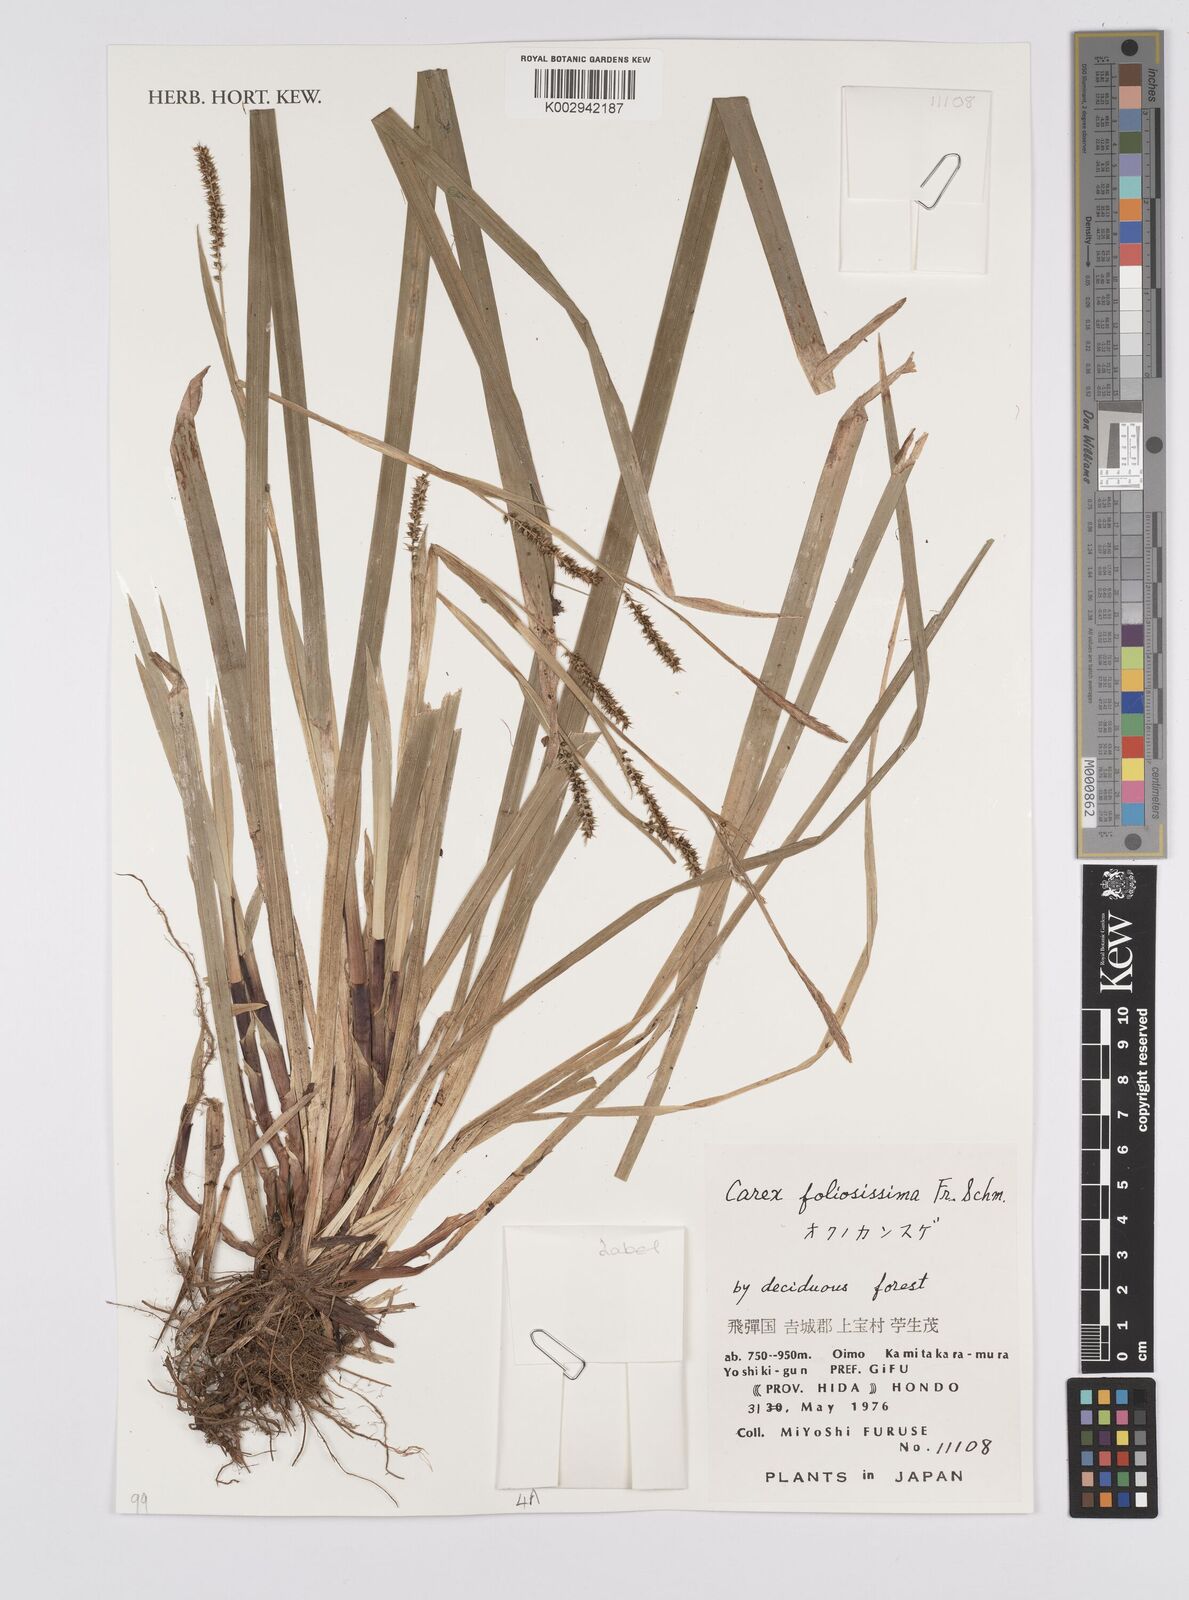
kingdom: Plantae
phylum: Tracheophyta
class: Liliopsida
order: Poales
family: Cyperaceae
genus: Carex
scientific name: Carex morrowii
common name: Japanese sedge
